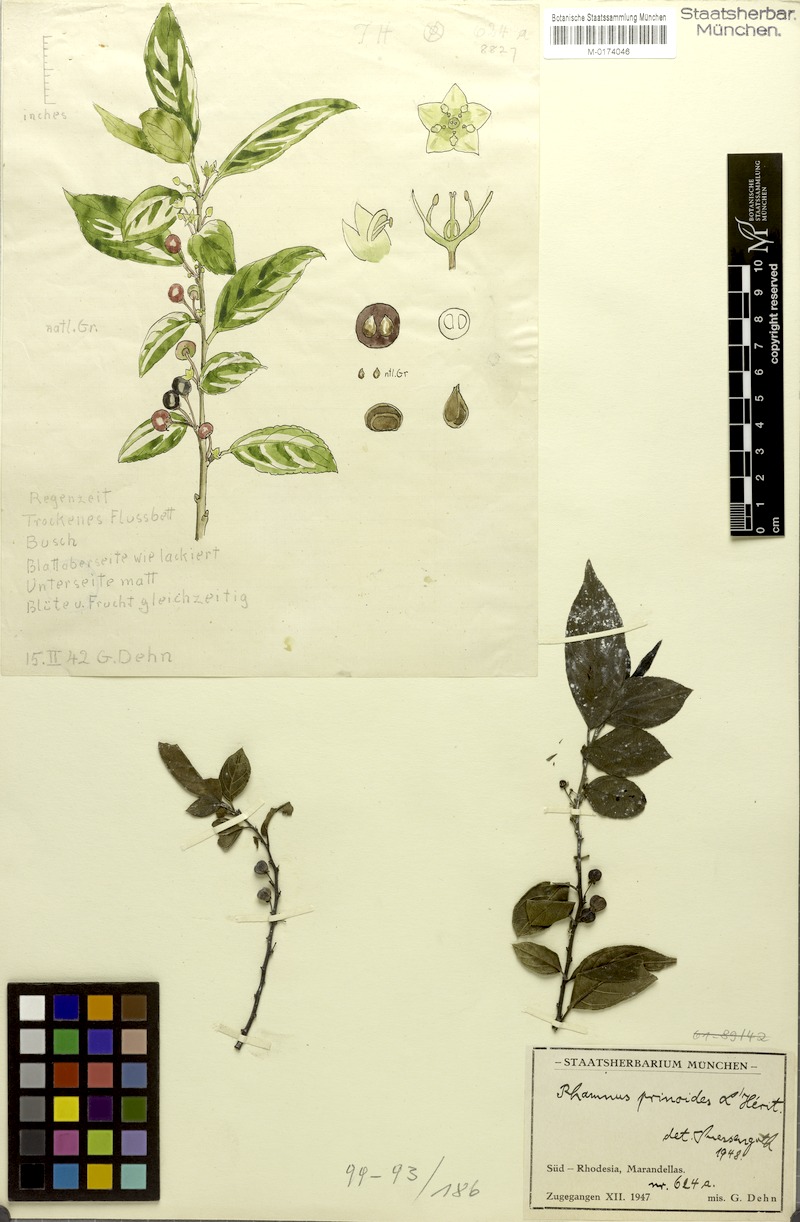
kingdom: Plantae
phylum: Tracheophyta
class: Magnoliopsida
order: Rosales
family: Rhamnaceae
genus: Rhamnus
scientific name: Rhamnus prinoides
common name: Dogwood
